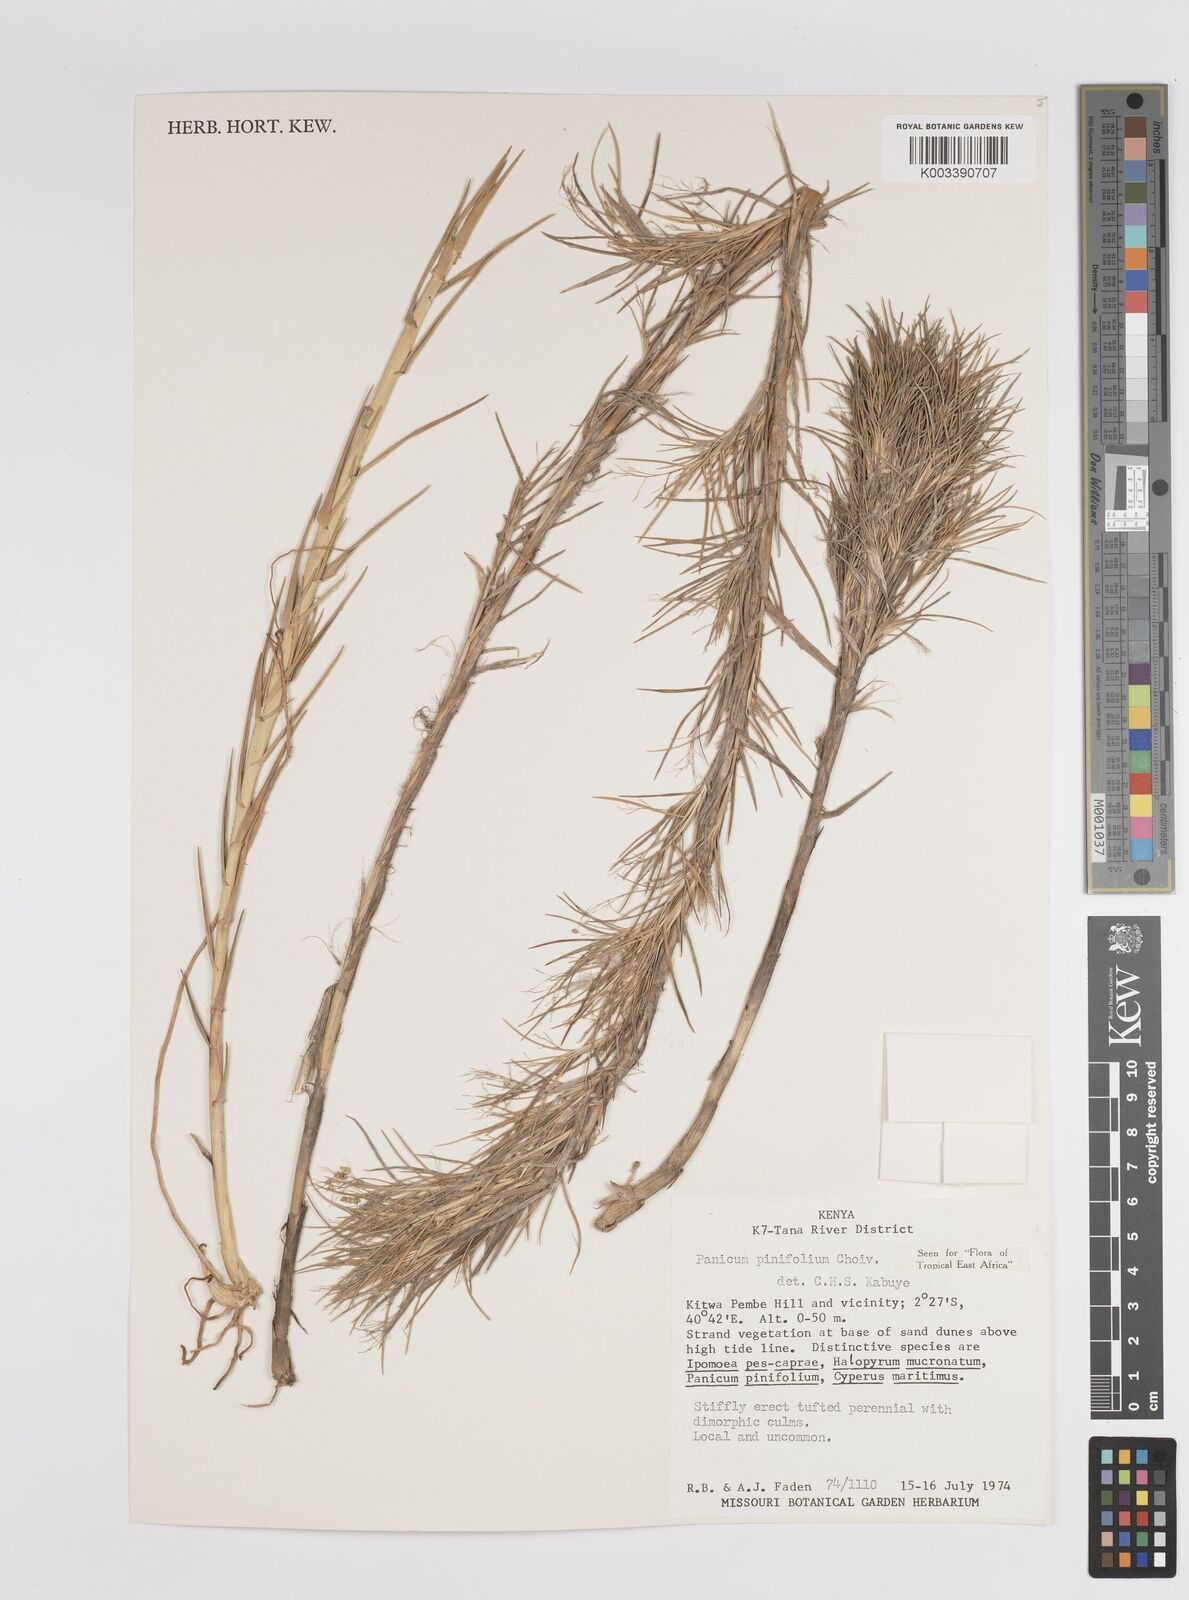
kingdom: Plantae
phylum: Tracheophyta
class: Liliopsida
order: Poales
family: Poaceae
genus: Panicum
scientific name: Panicum pinifolium
